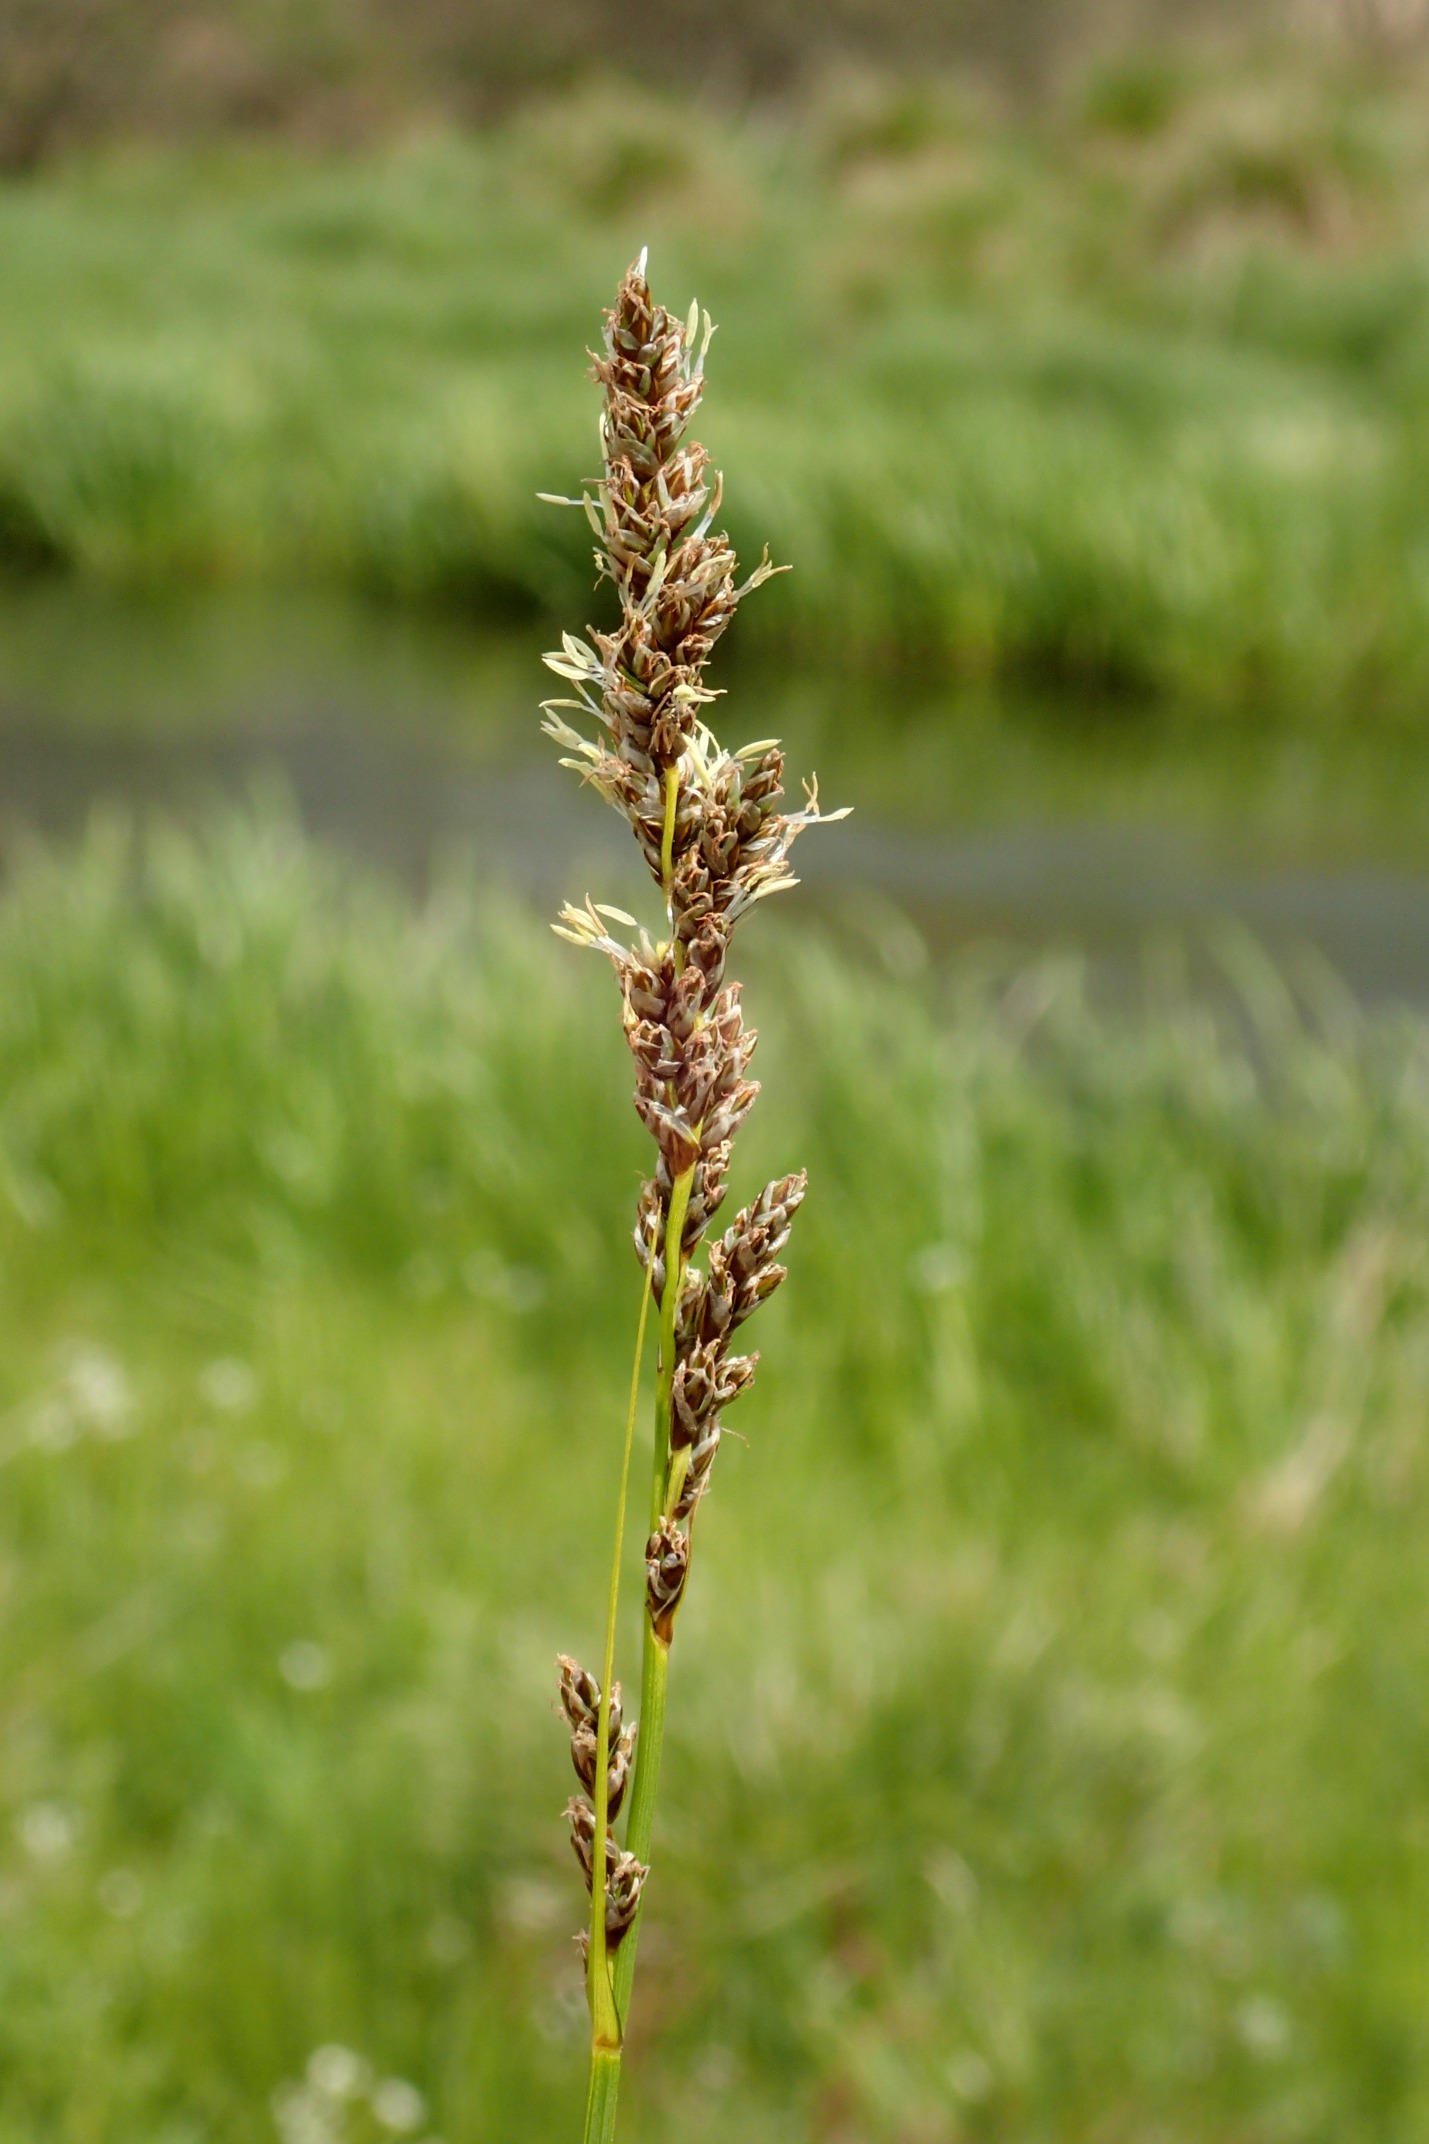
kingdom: Plantae
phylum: Tracheophyta
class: Liliopsida
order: Poales
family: Cyperaceae
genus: Carex
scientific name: Carex paniculata
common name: Top-star
